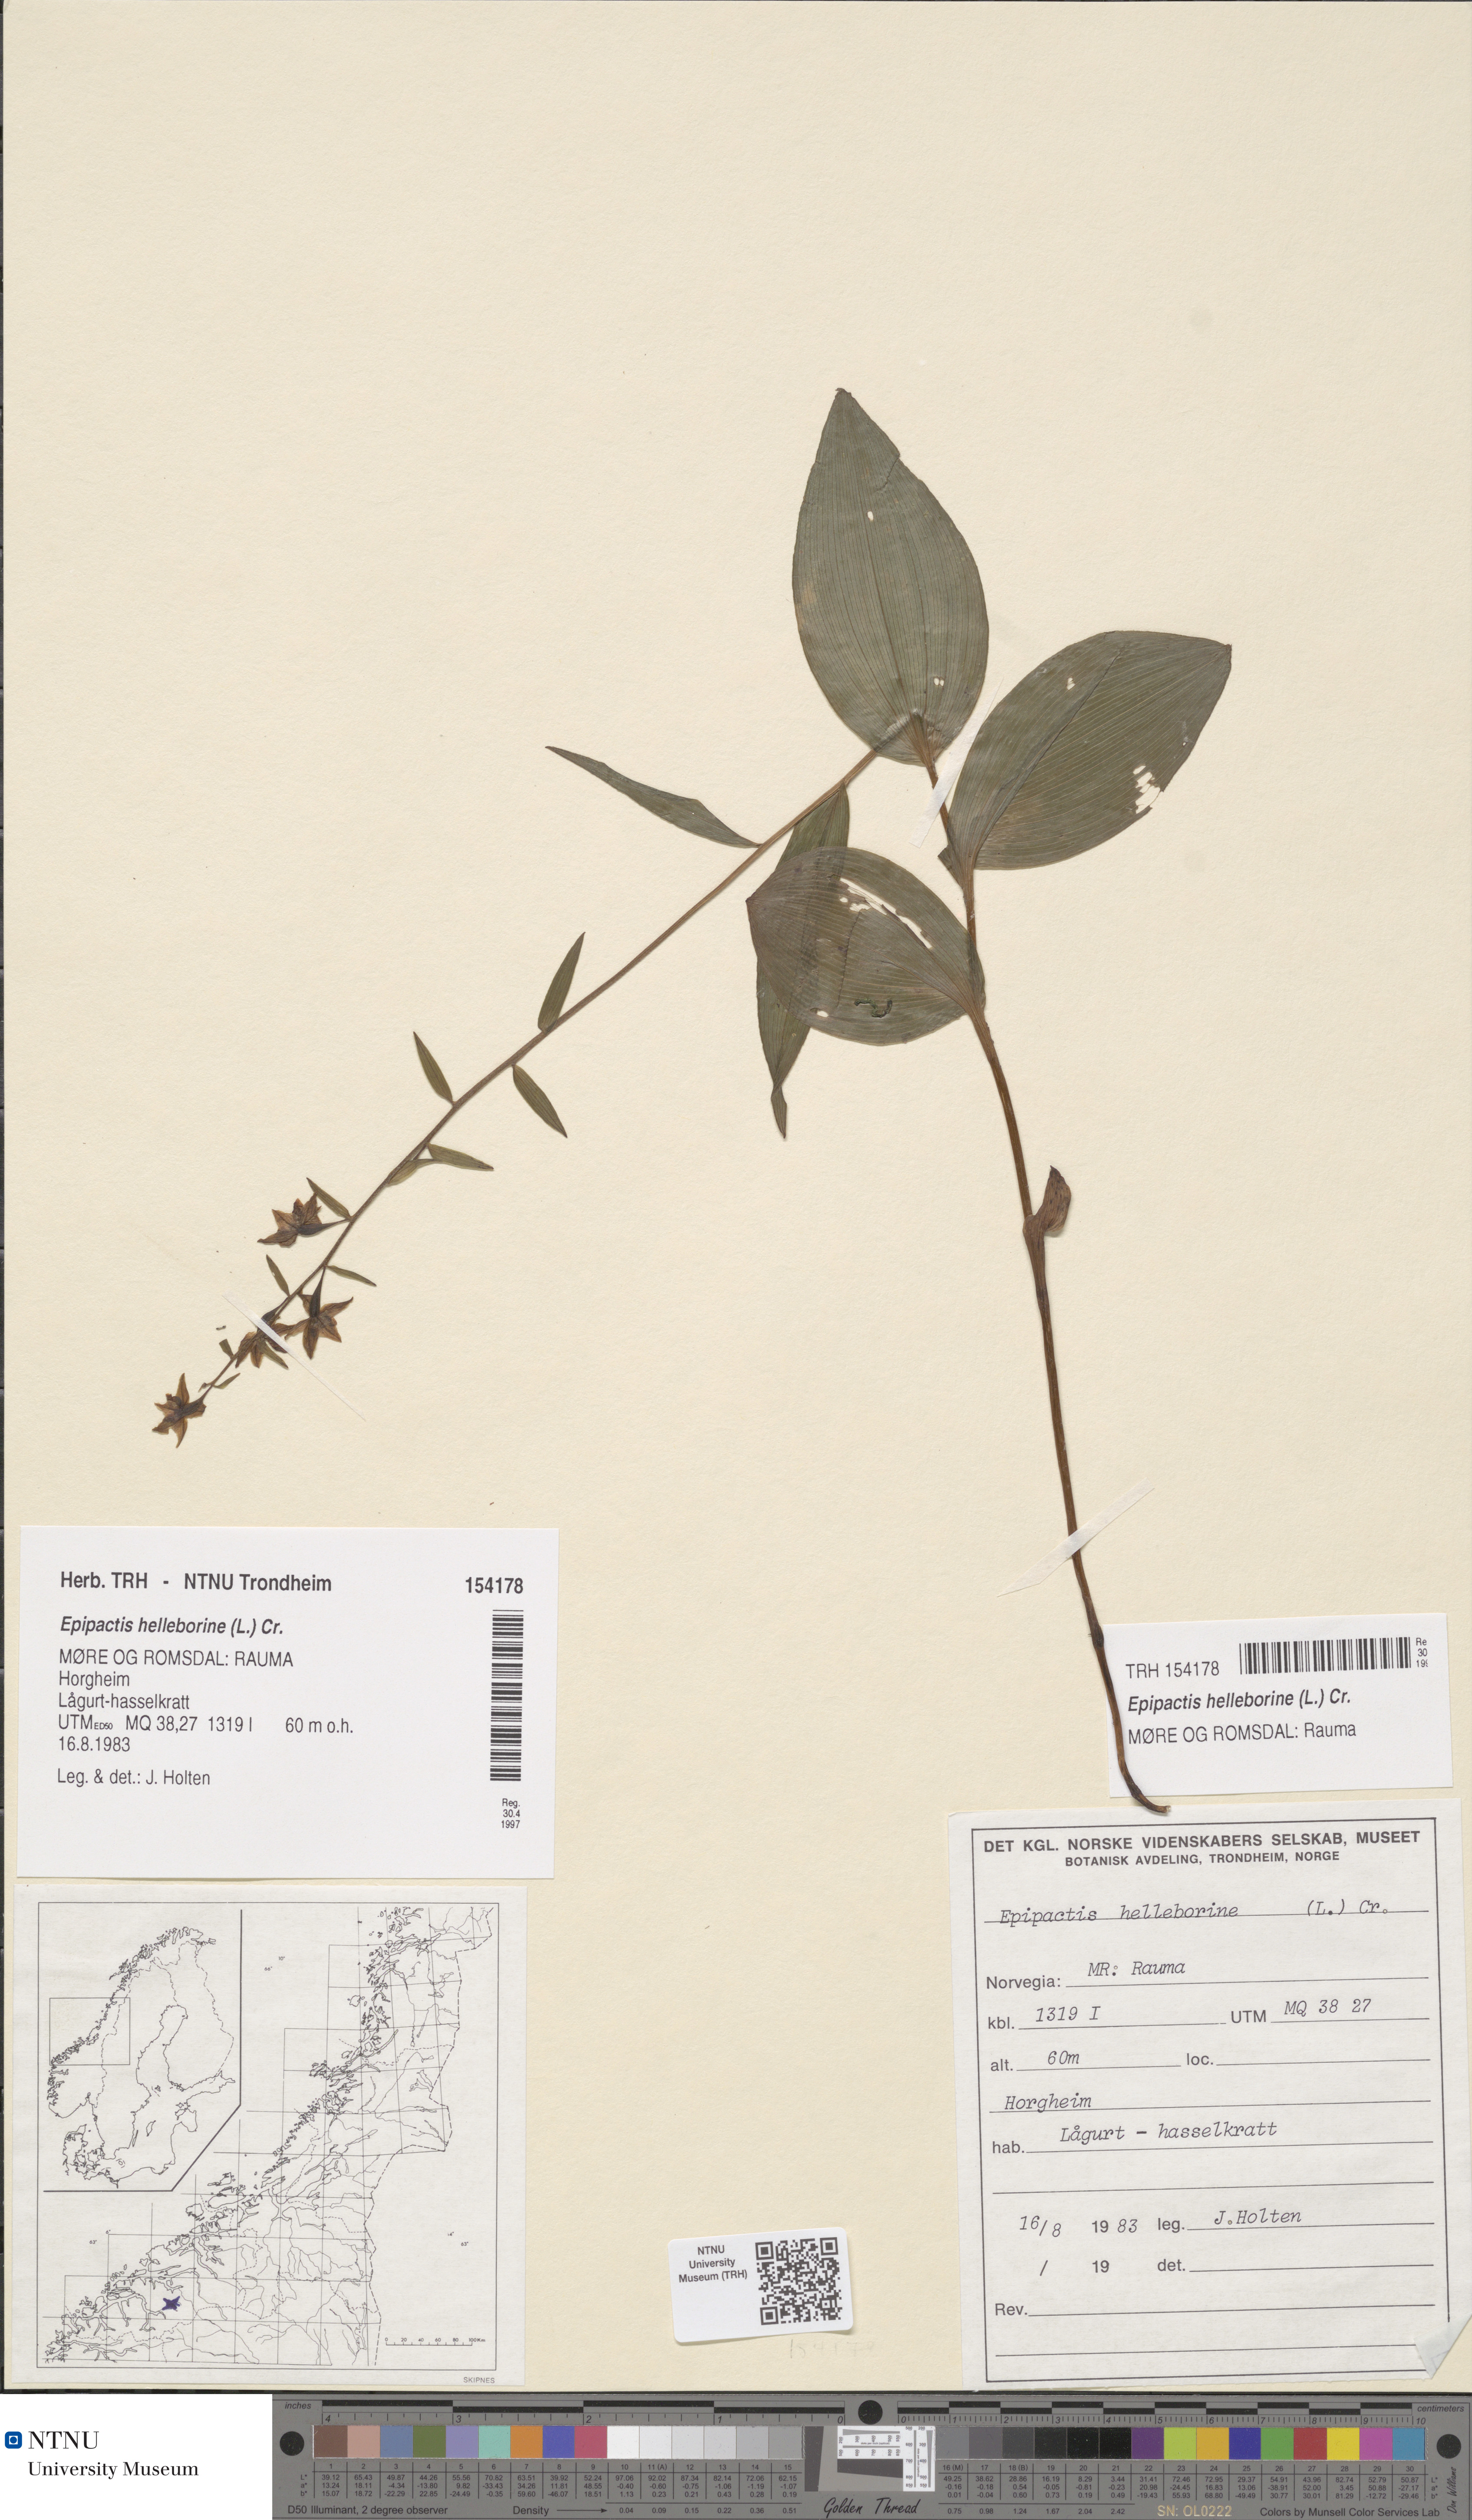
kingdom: Plantae
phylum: Tracheophyta
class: Liliopsida
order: Asparagales
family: Orchidaceae
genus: Epipactis
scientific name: Epipactis helleborine
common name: Broad-leaved helleborine
